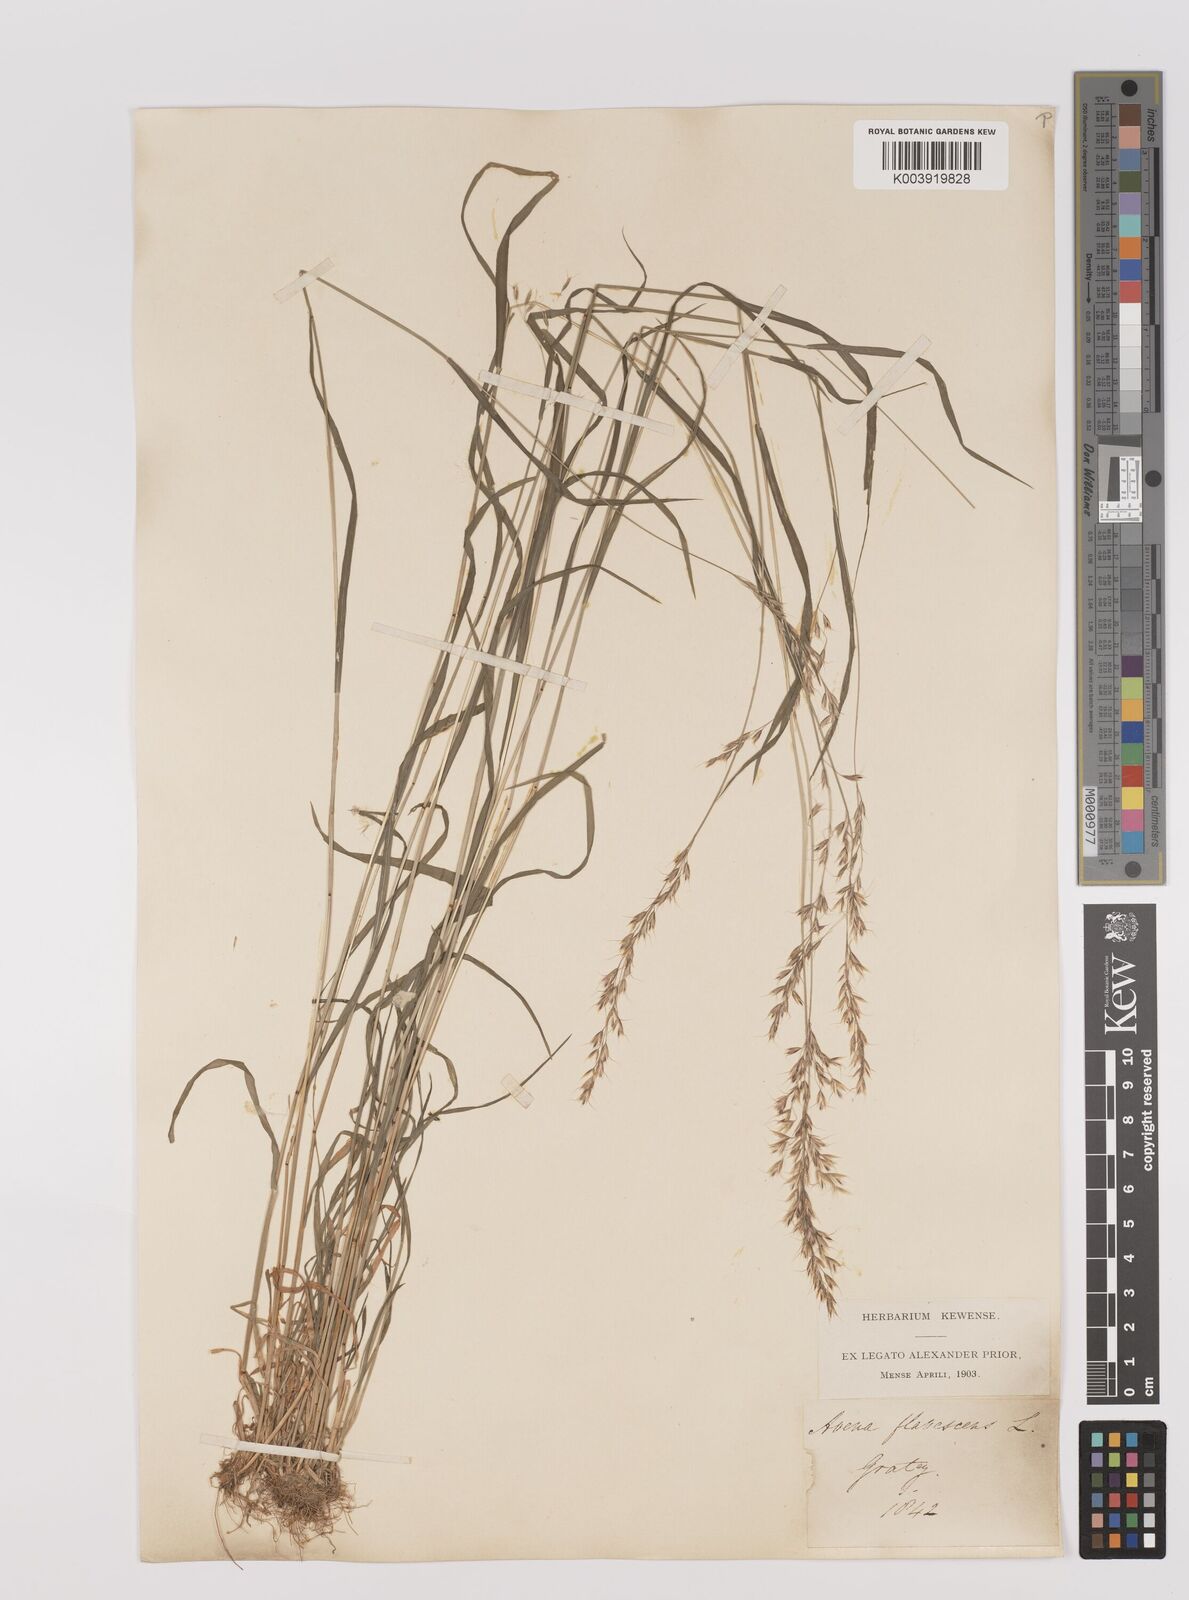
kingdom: Plantae
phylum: Tracheophyta
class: Liliopsida
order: Poales
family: Poaceae
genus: Trisetum
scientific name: Trisetum flavescens
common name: Yellow oat-grass
